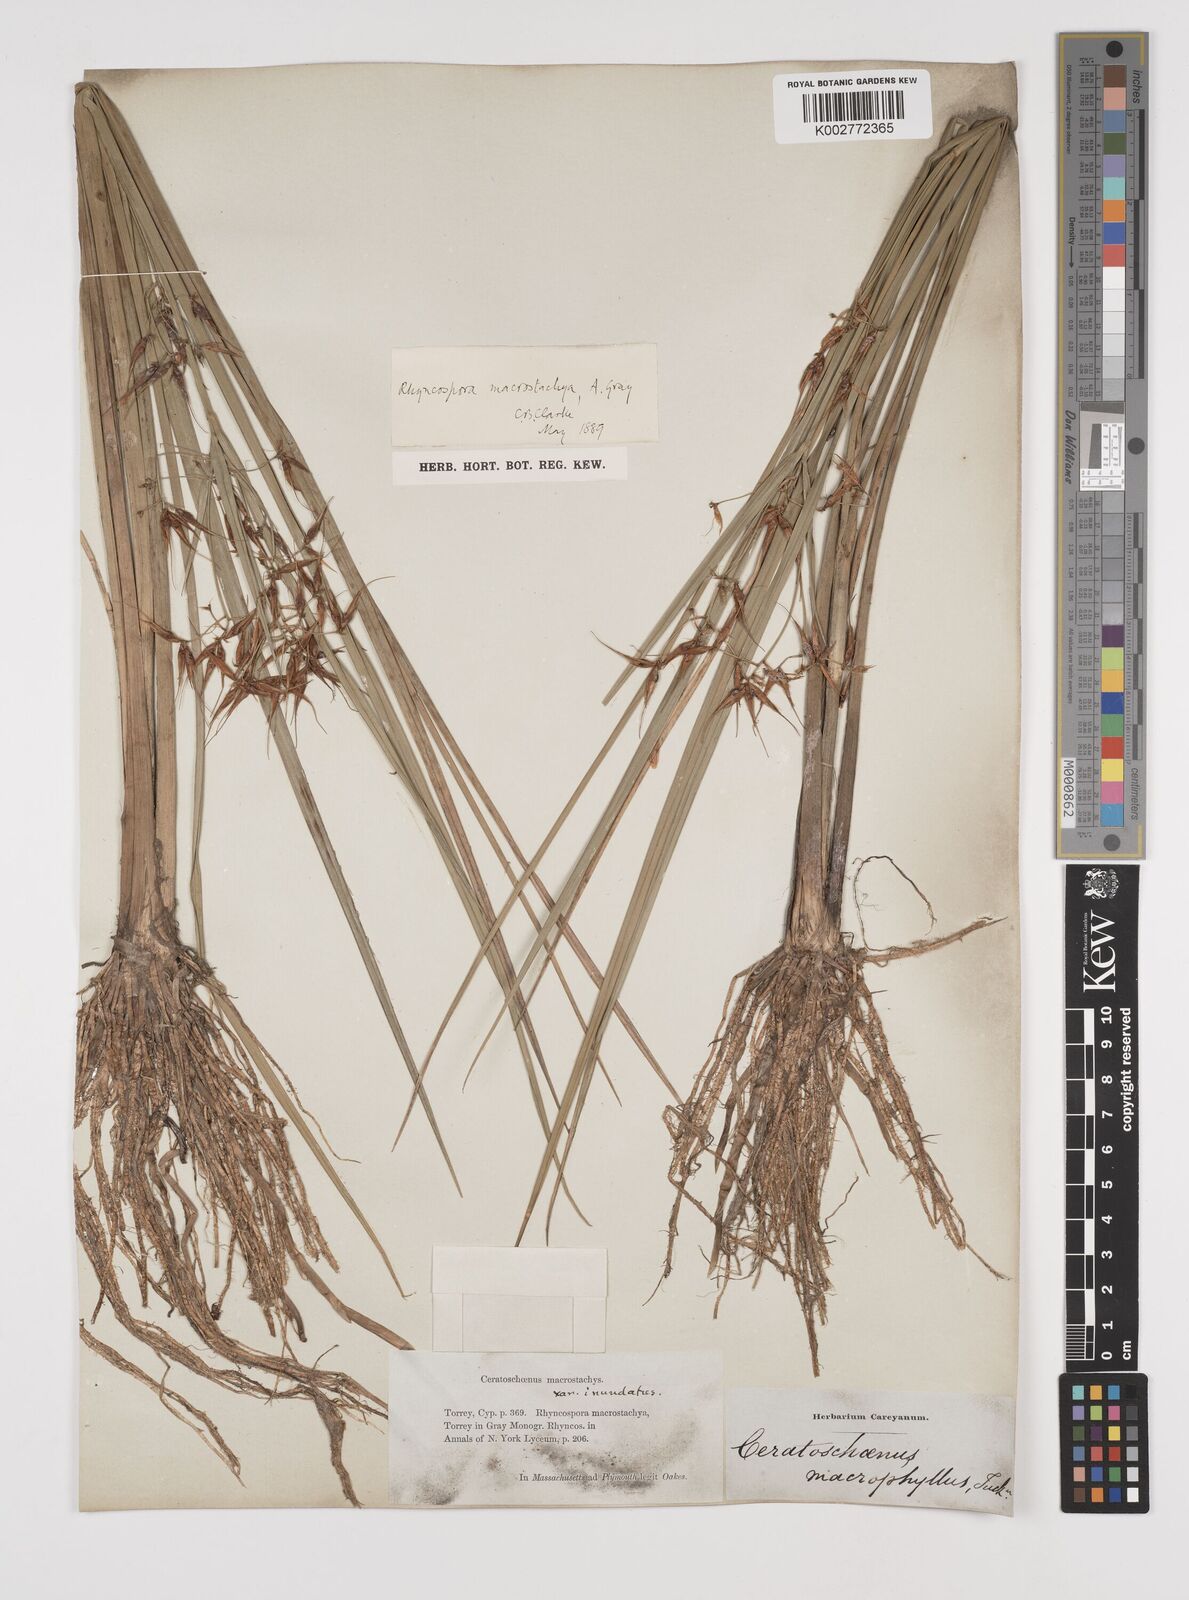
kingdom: Plantae
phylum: Tracheophyta
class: Liliopsida
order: Poales
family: Cyperaceae
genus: Rhynchospora
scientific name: Rhynchospora corniculata
